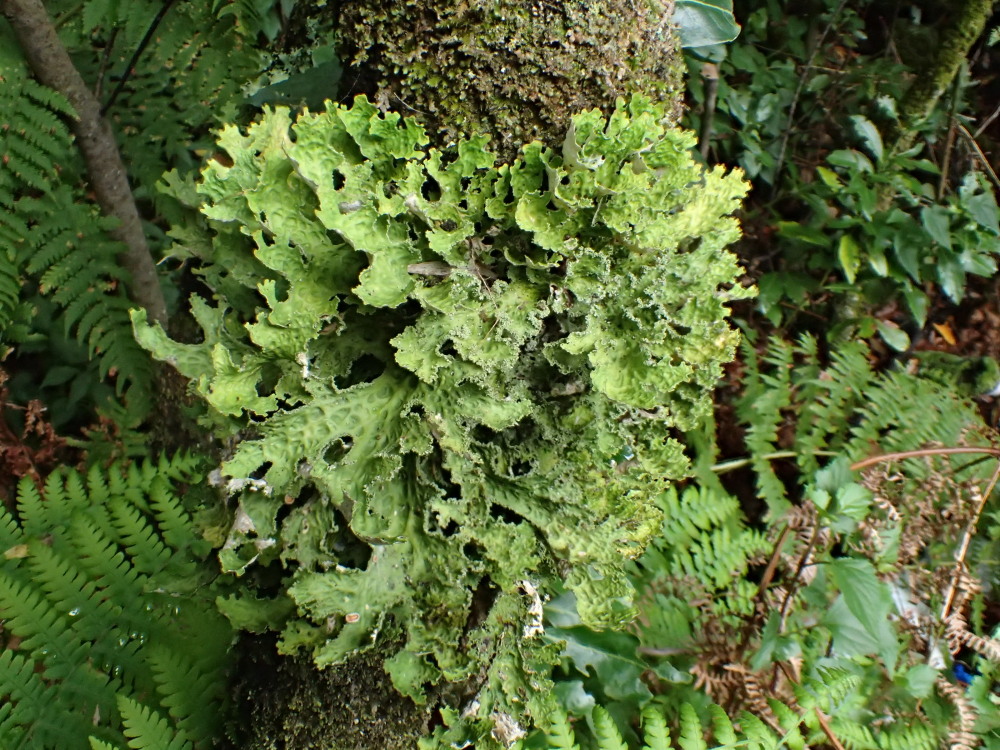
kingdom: Fungi
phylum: Ascomycota
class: Lecanoromycetes
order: Peltigerales
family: Lobariaceae
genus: Lobaria
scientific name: Lobaria pulmonaria
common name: almindelig lungelav
